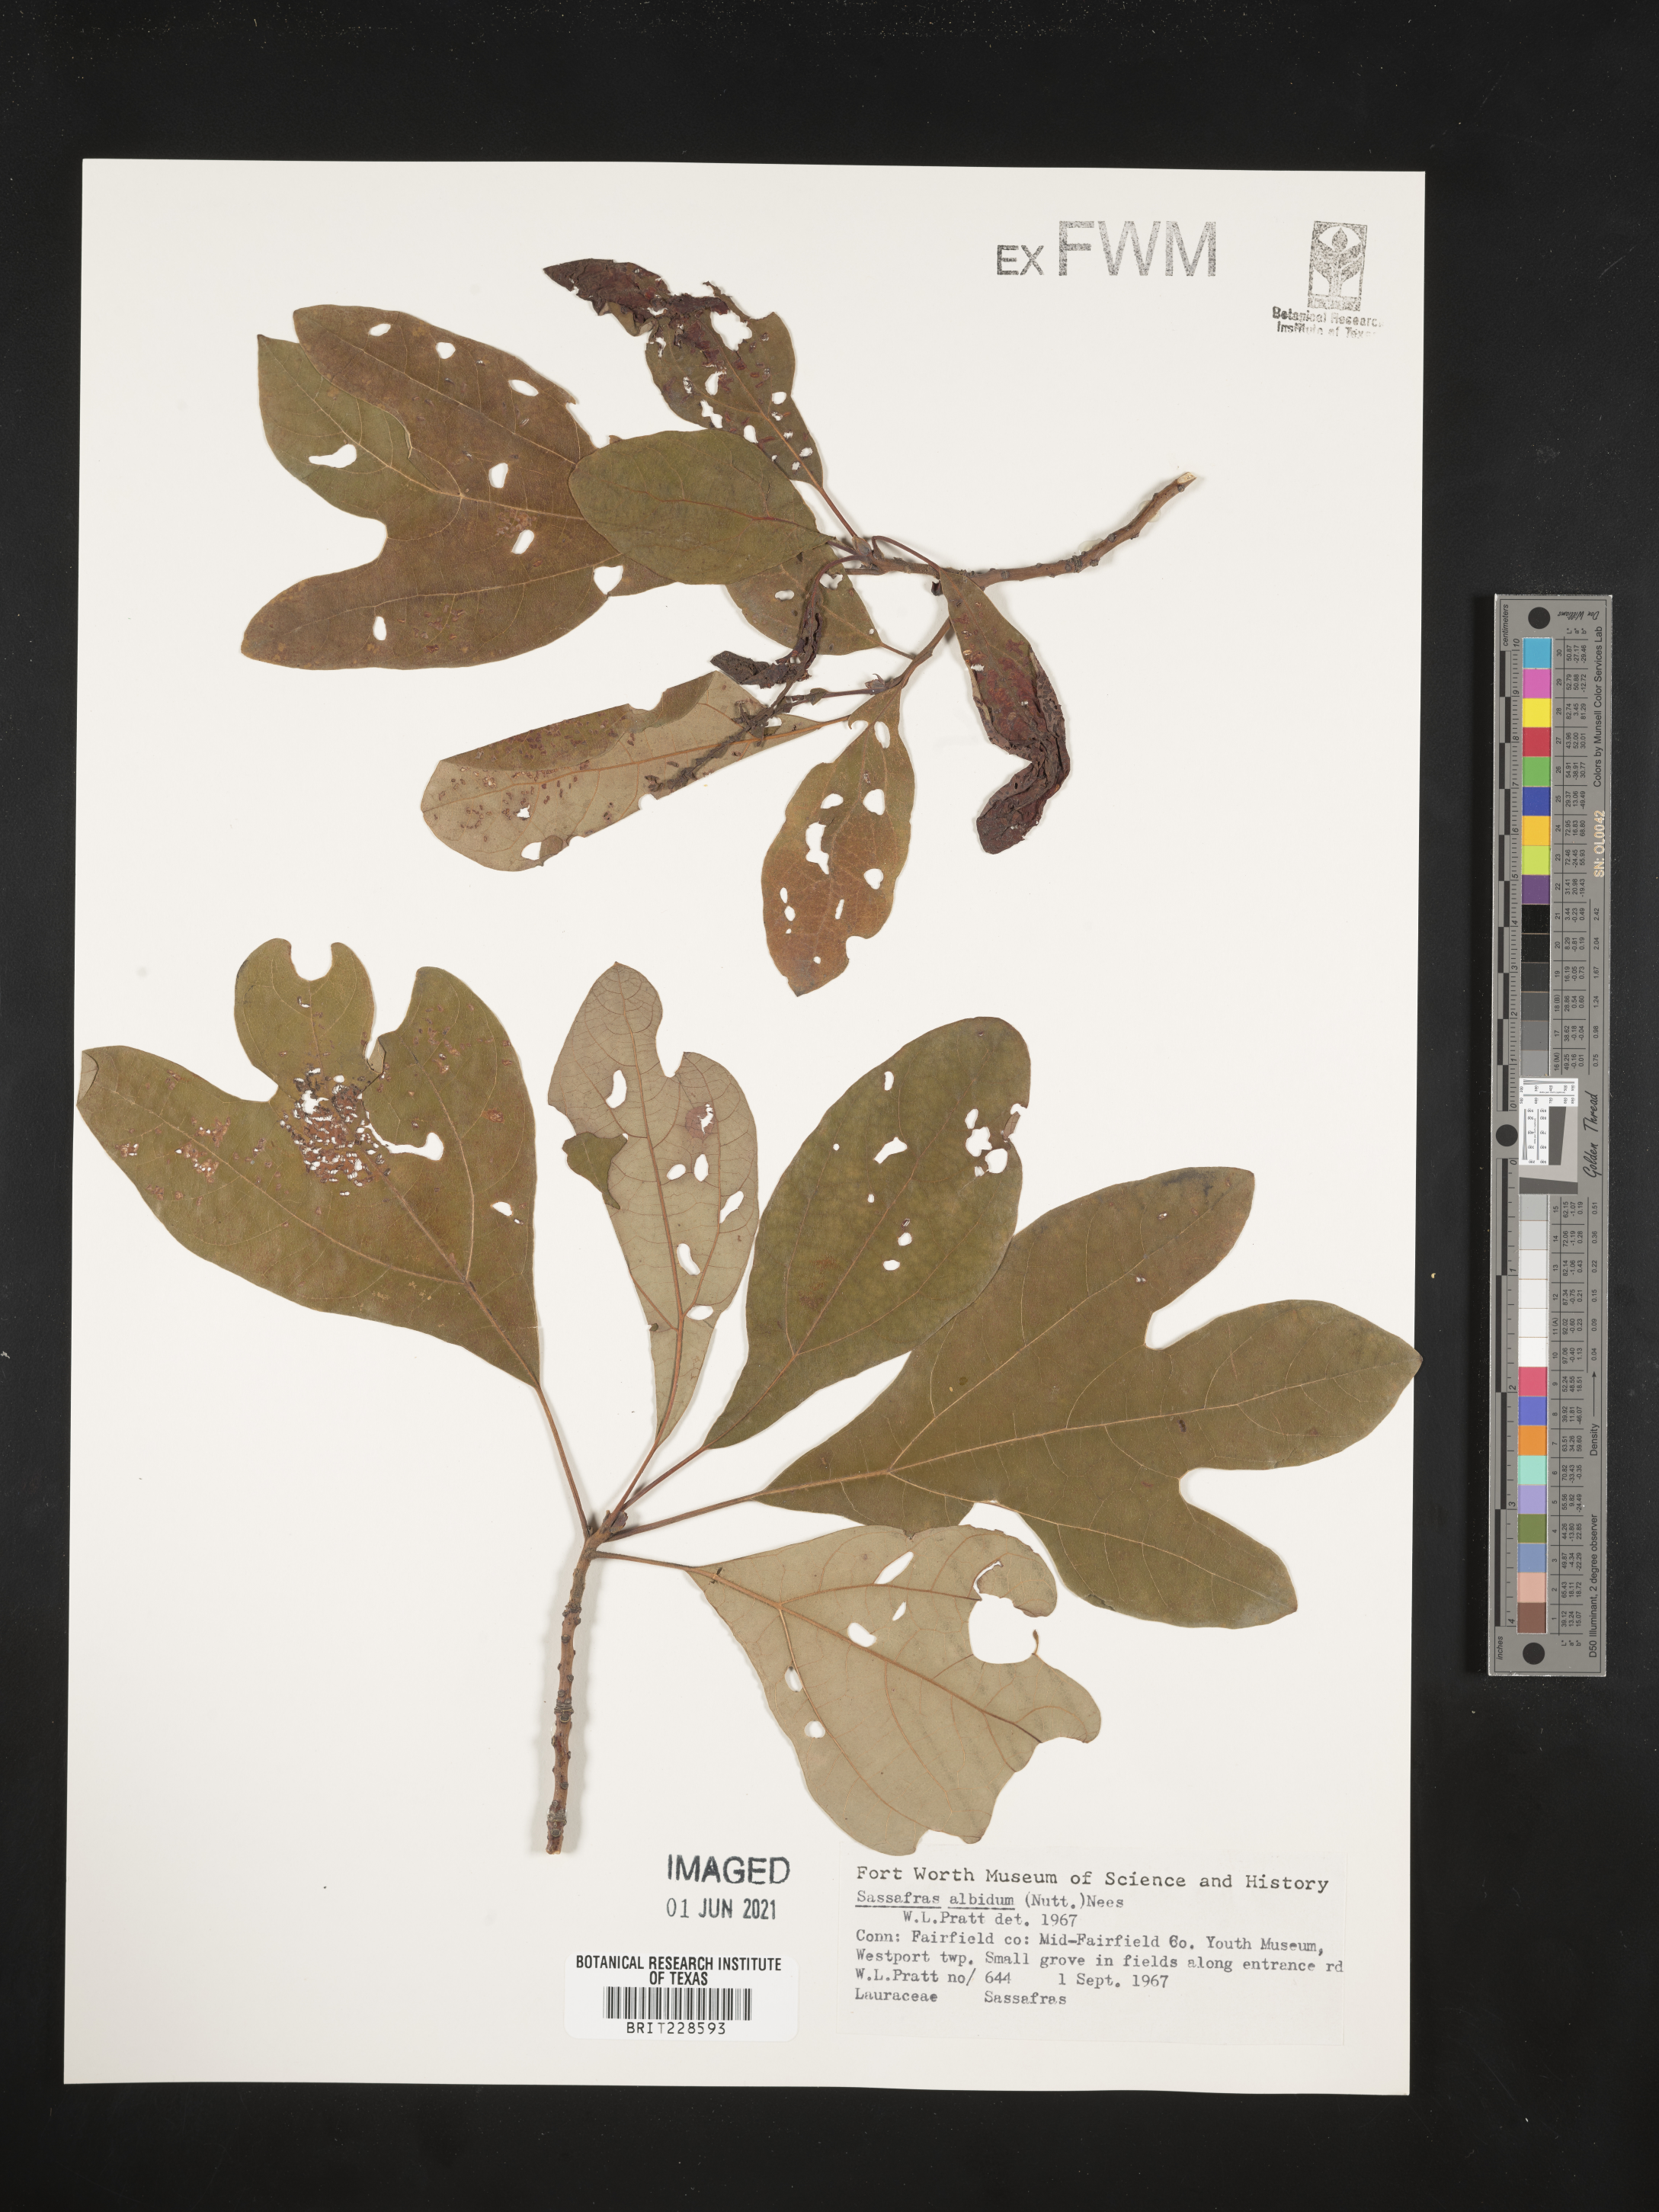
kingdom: Plantae
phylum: Tracheophyta
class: Magnoliopsida
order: Laurales
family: Lauraceae
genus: Sassafras
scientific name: Sassafras albidum
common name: Sassafras
